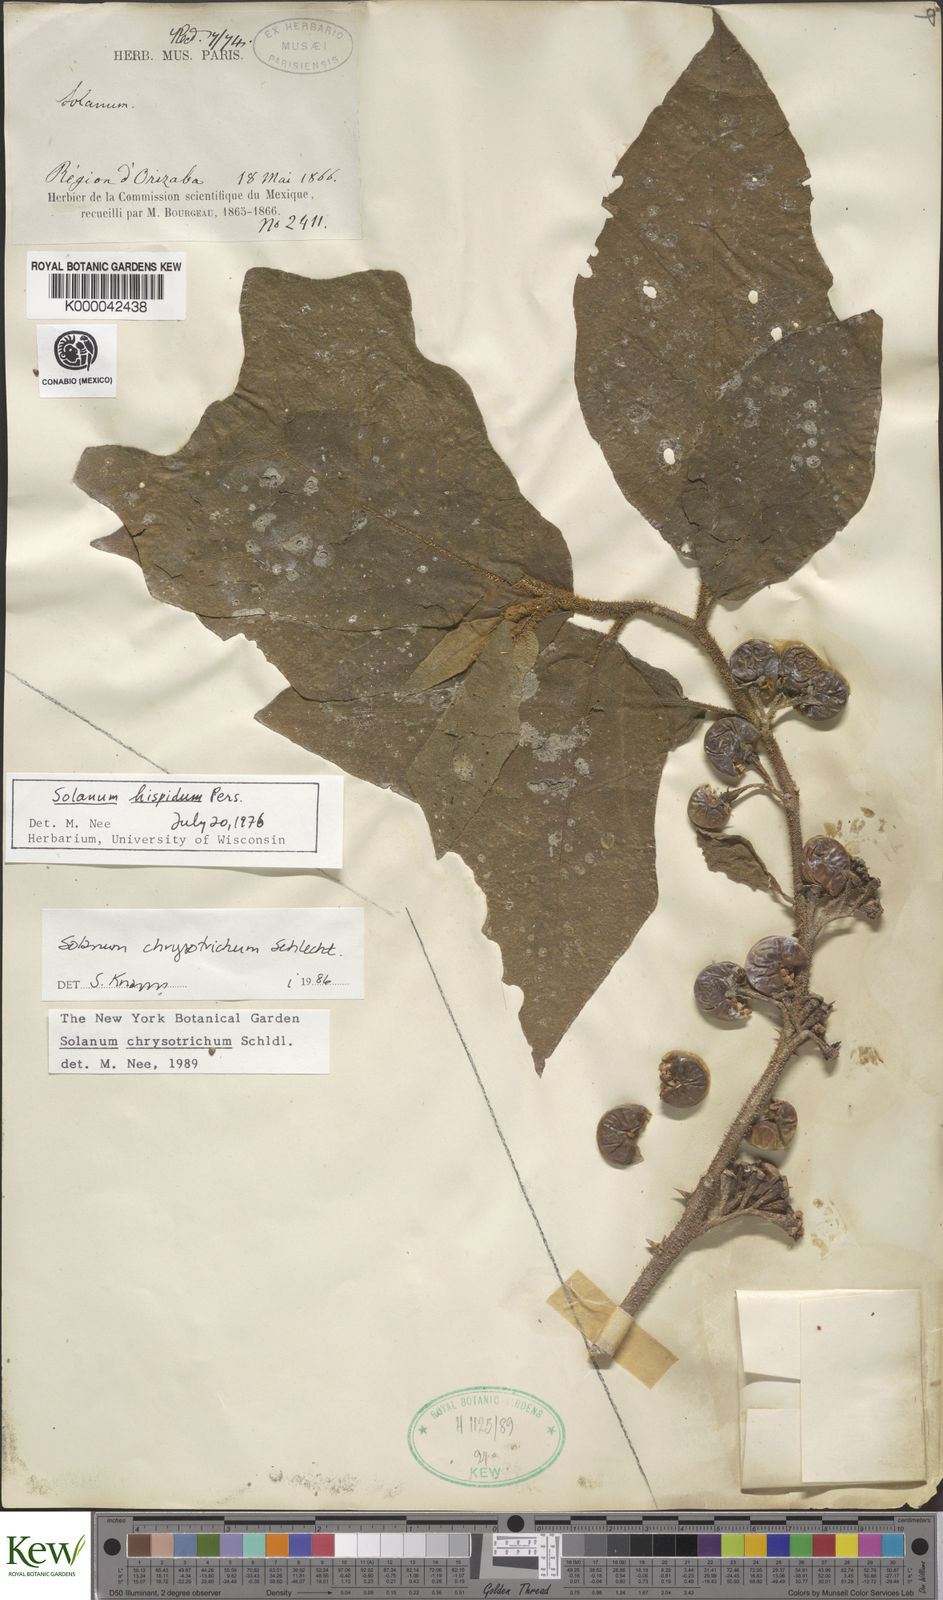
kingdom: Plantae
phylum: Tracheophyta
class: Magnoliopsida
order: Solanales
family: Solanaceae
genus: Solanum
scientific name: Solanum
